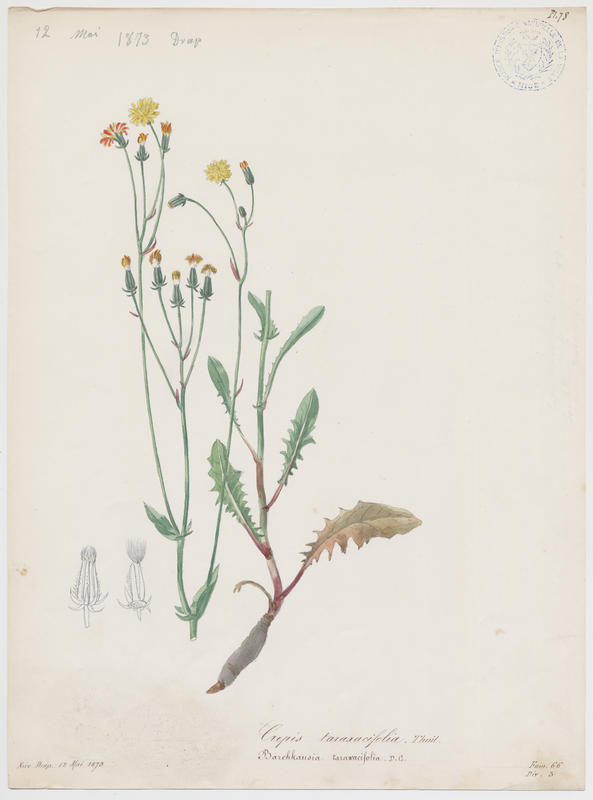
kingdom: Plantae
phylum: Tracheophyta
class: Magnoliopsida
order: Asterales
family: Asteraceae
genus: Crepis
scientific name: Crepis vesicaria
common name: Beaked hawksbeard
